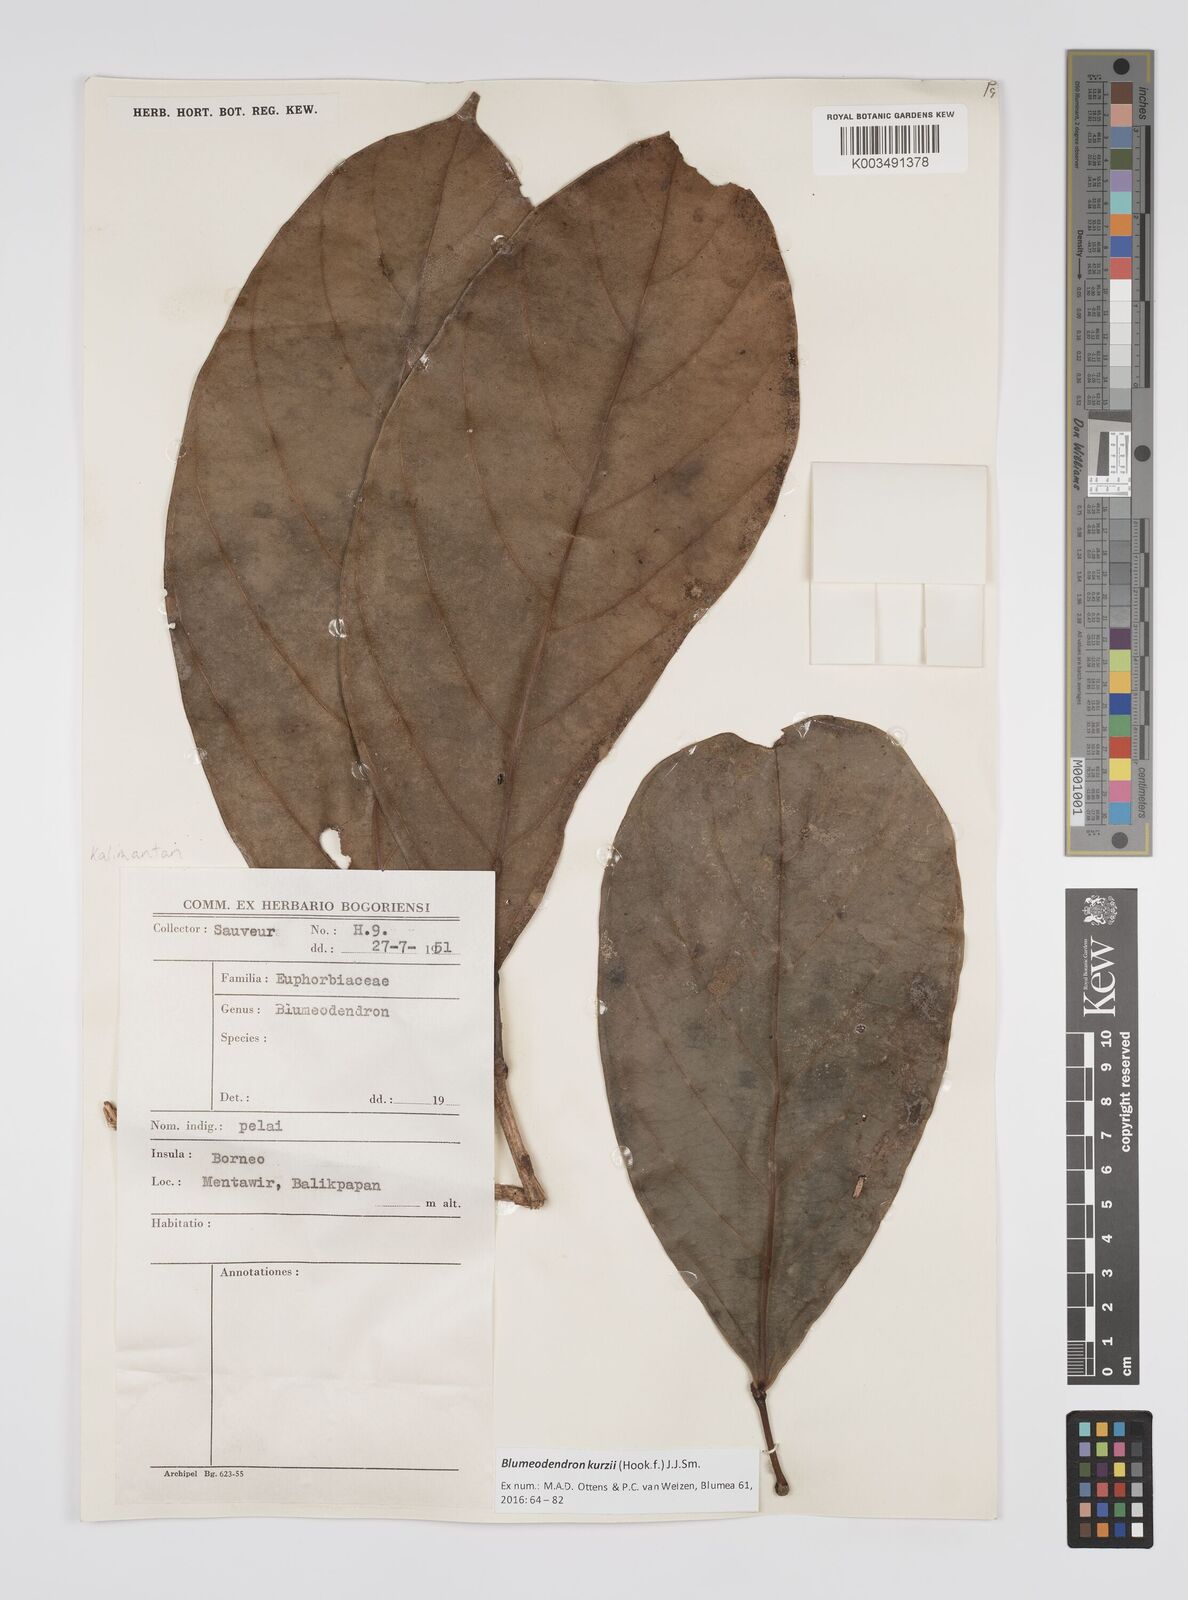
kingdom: Plantae
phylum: Tracheophyta
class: Magnoliopsida
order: Malpighiales
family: Euphorbiaceae
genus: Blumeodendron
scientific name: Blumeodendron kurzii
